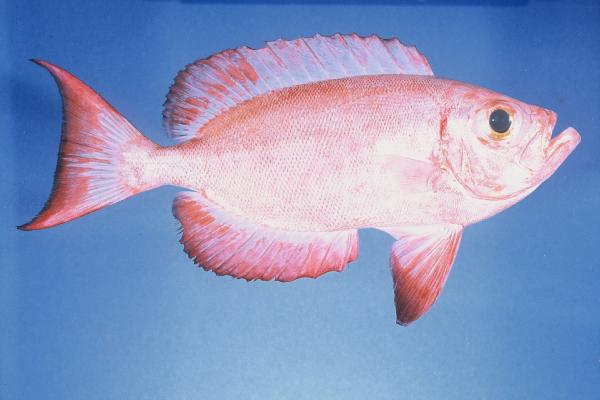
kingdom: Animalia
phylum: Chordata
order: Perciformes
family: Priacanthidae
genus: Priacanthus
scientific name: Priacanthus hamrur
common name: Moontail bullseye
